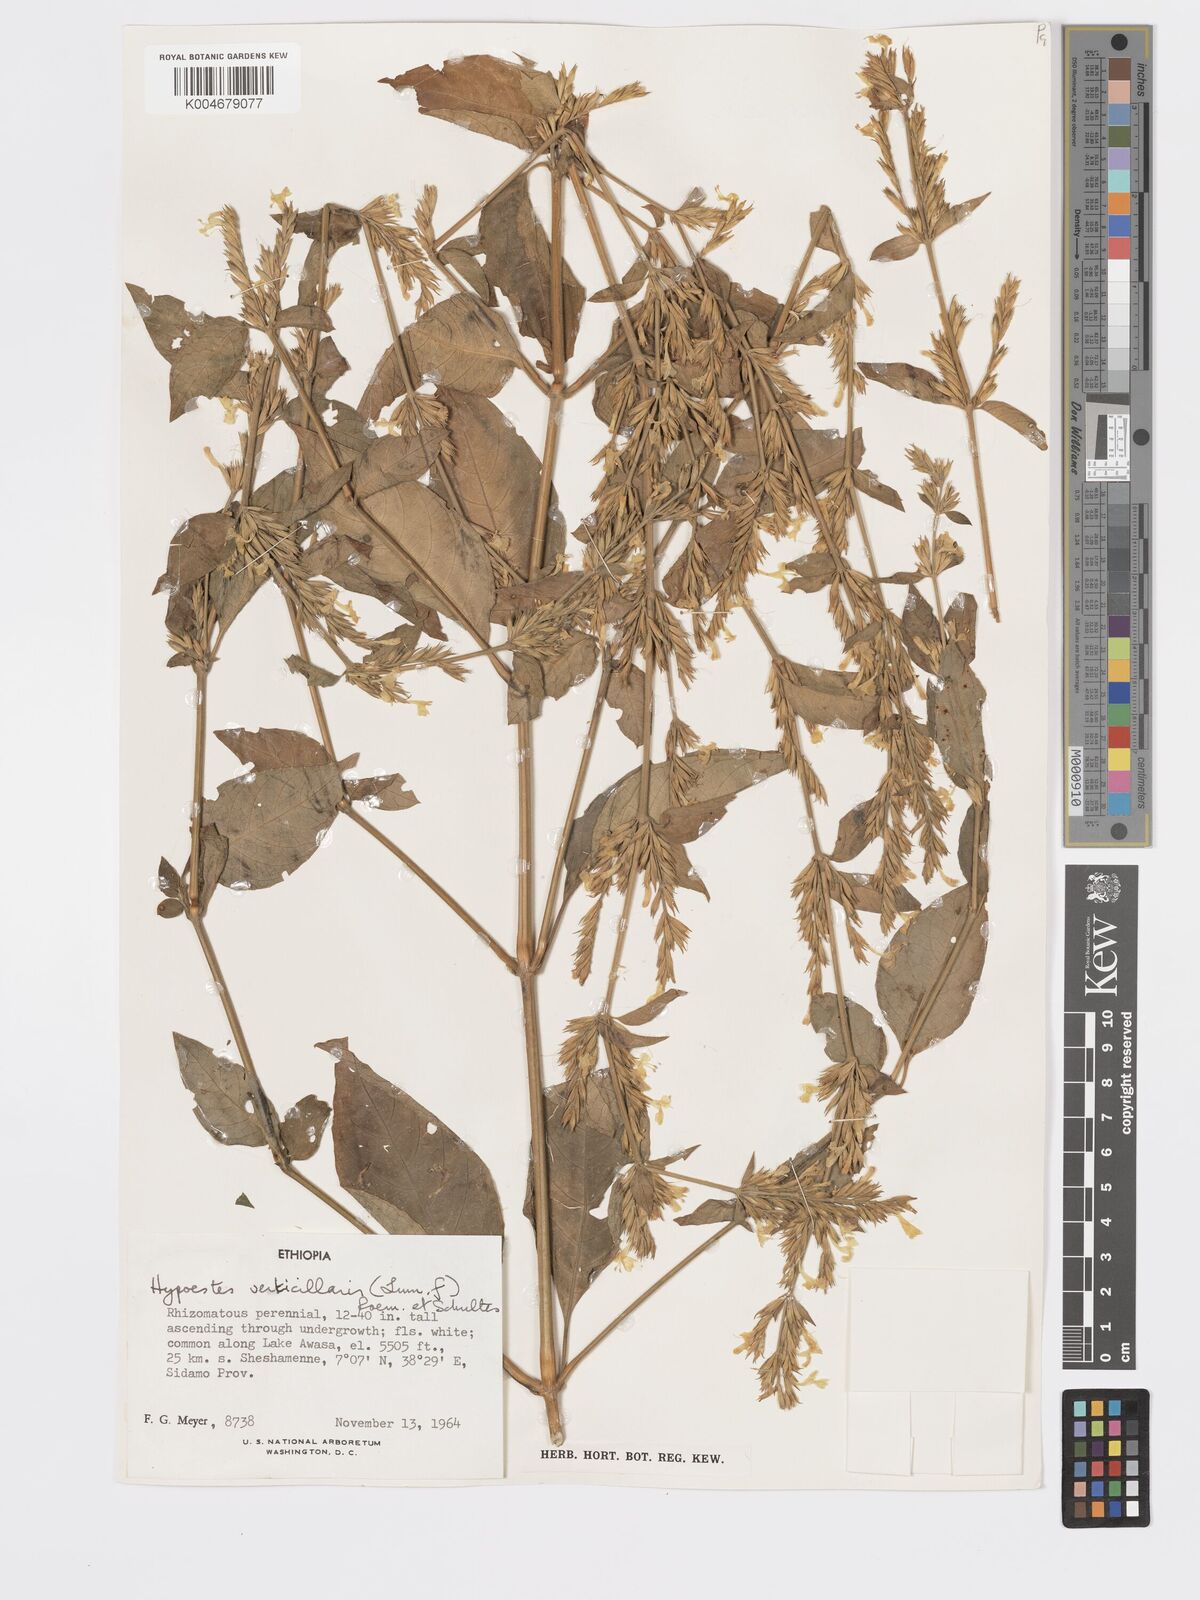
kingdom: Plantae
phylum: Tracheophyta
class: Magnoliopsida
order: Lamiales
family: Acanthaceae
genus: Hypoestes
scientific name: Hypoestes forskaolii
